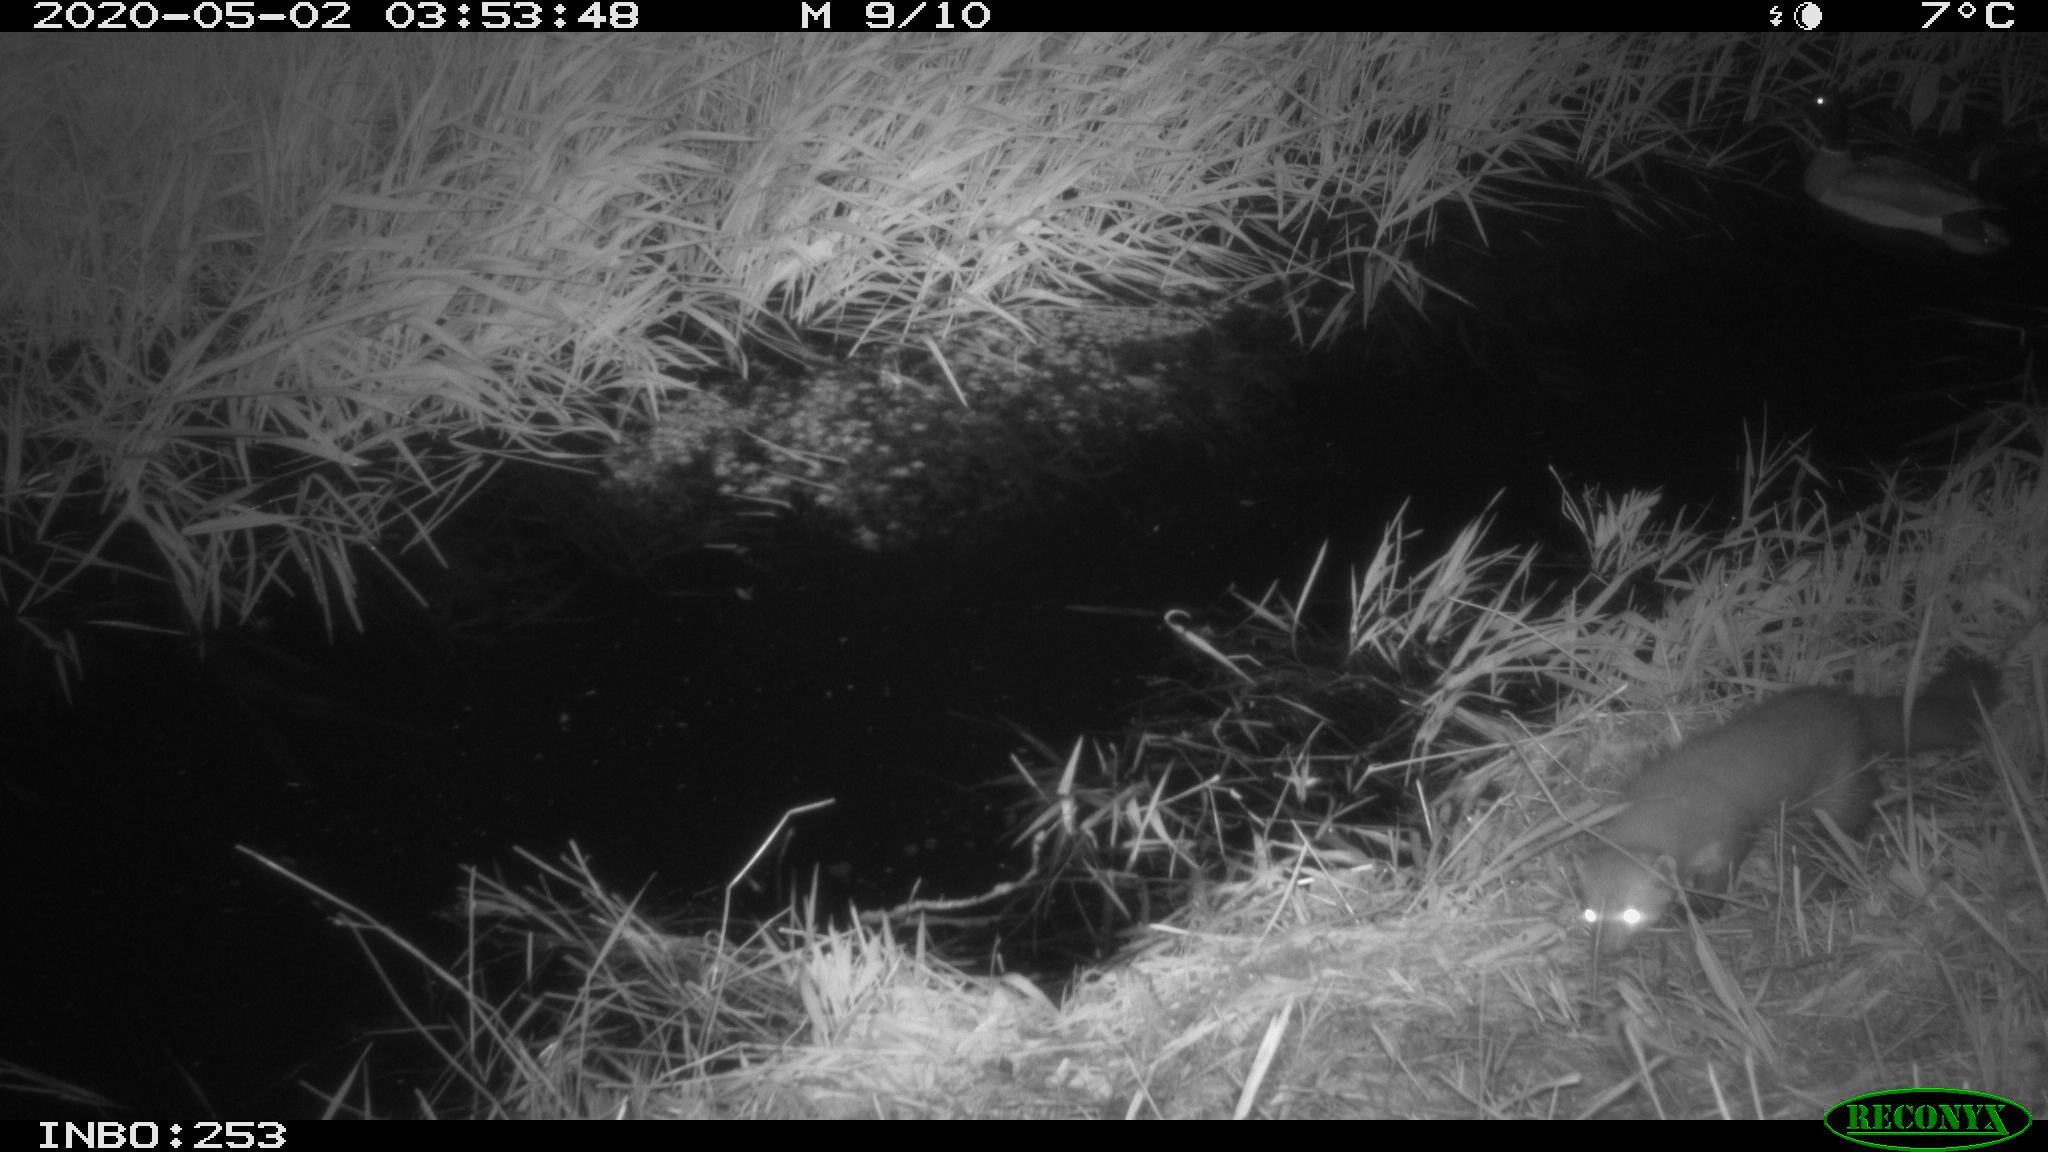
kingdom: Animalia
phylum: Chordata
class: Aves
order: Anseriformes
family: Anatidae
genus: Anas
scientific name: Anas platyrhynchos
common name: Mallard
